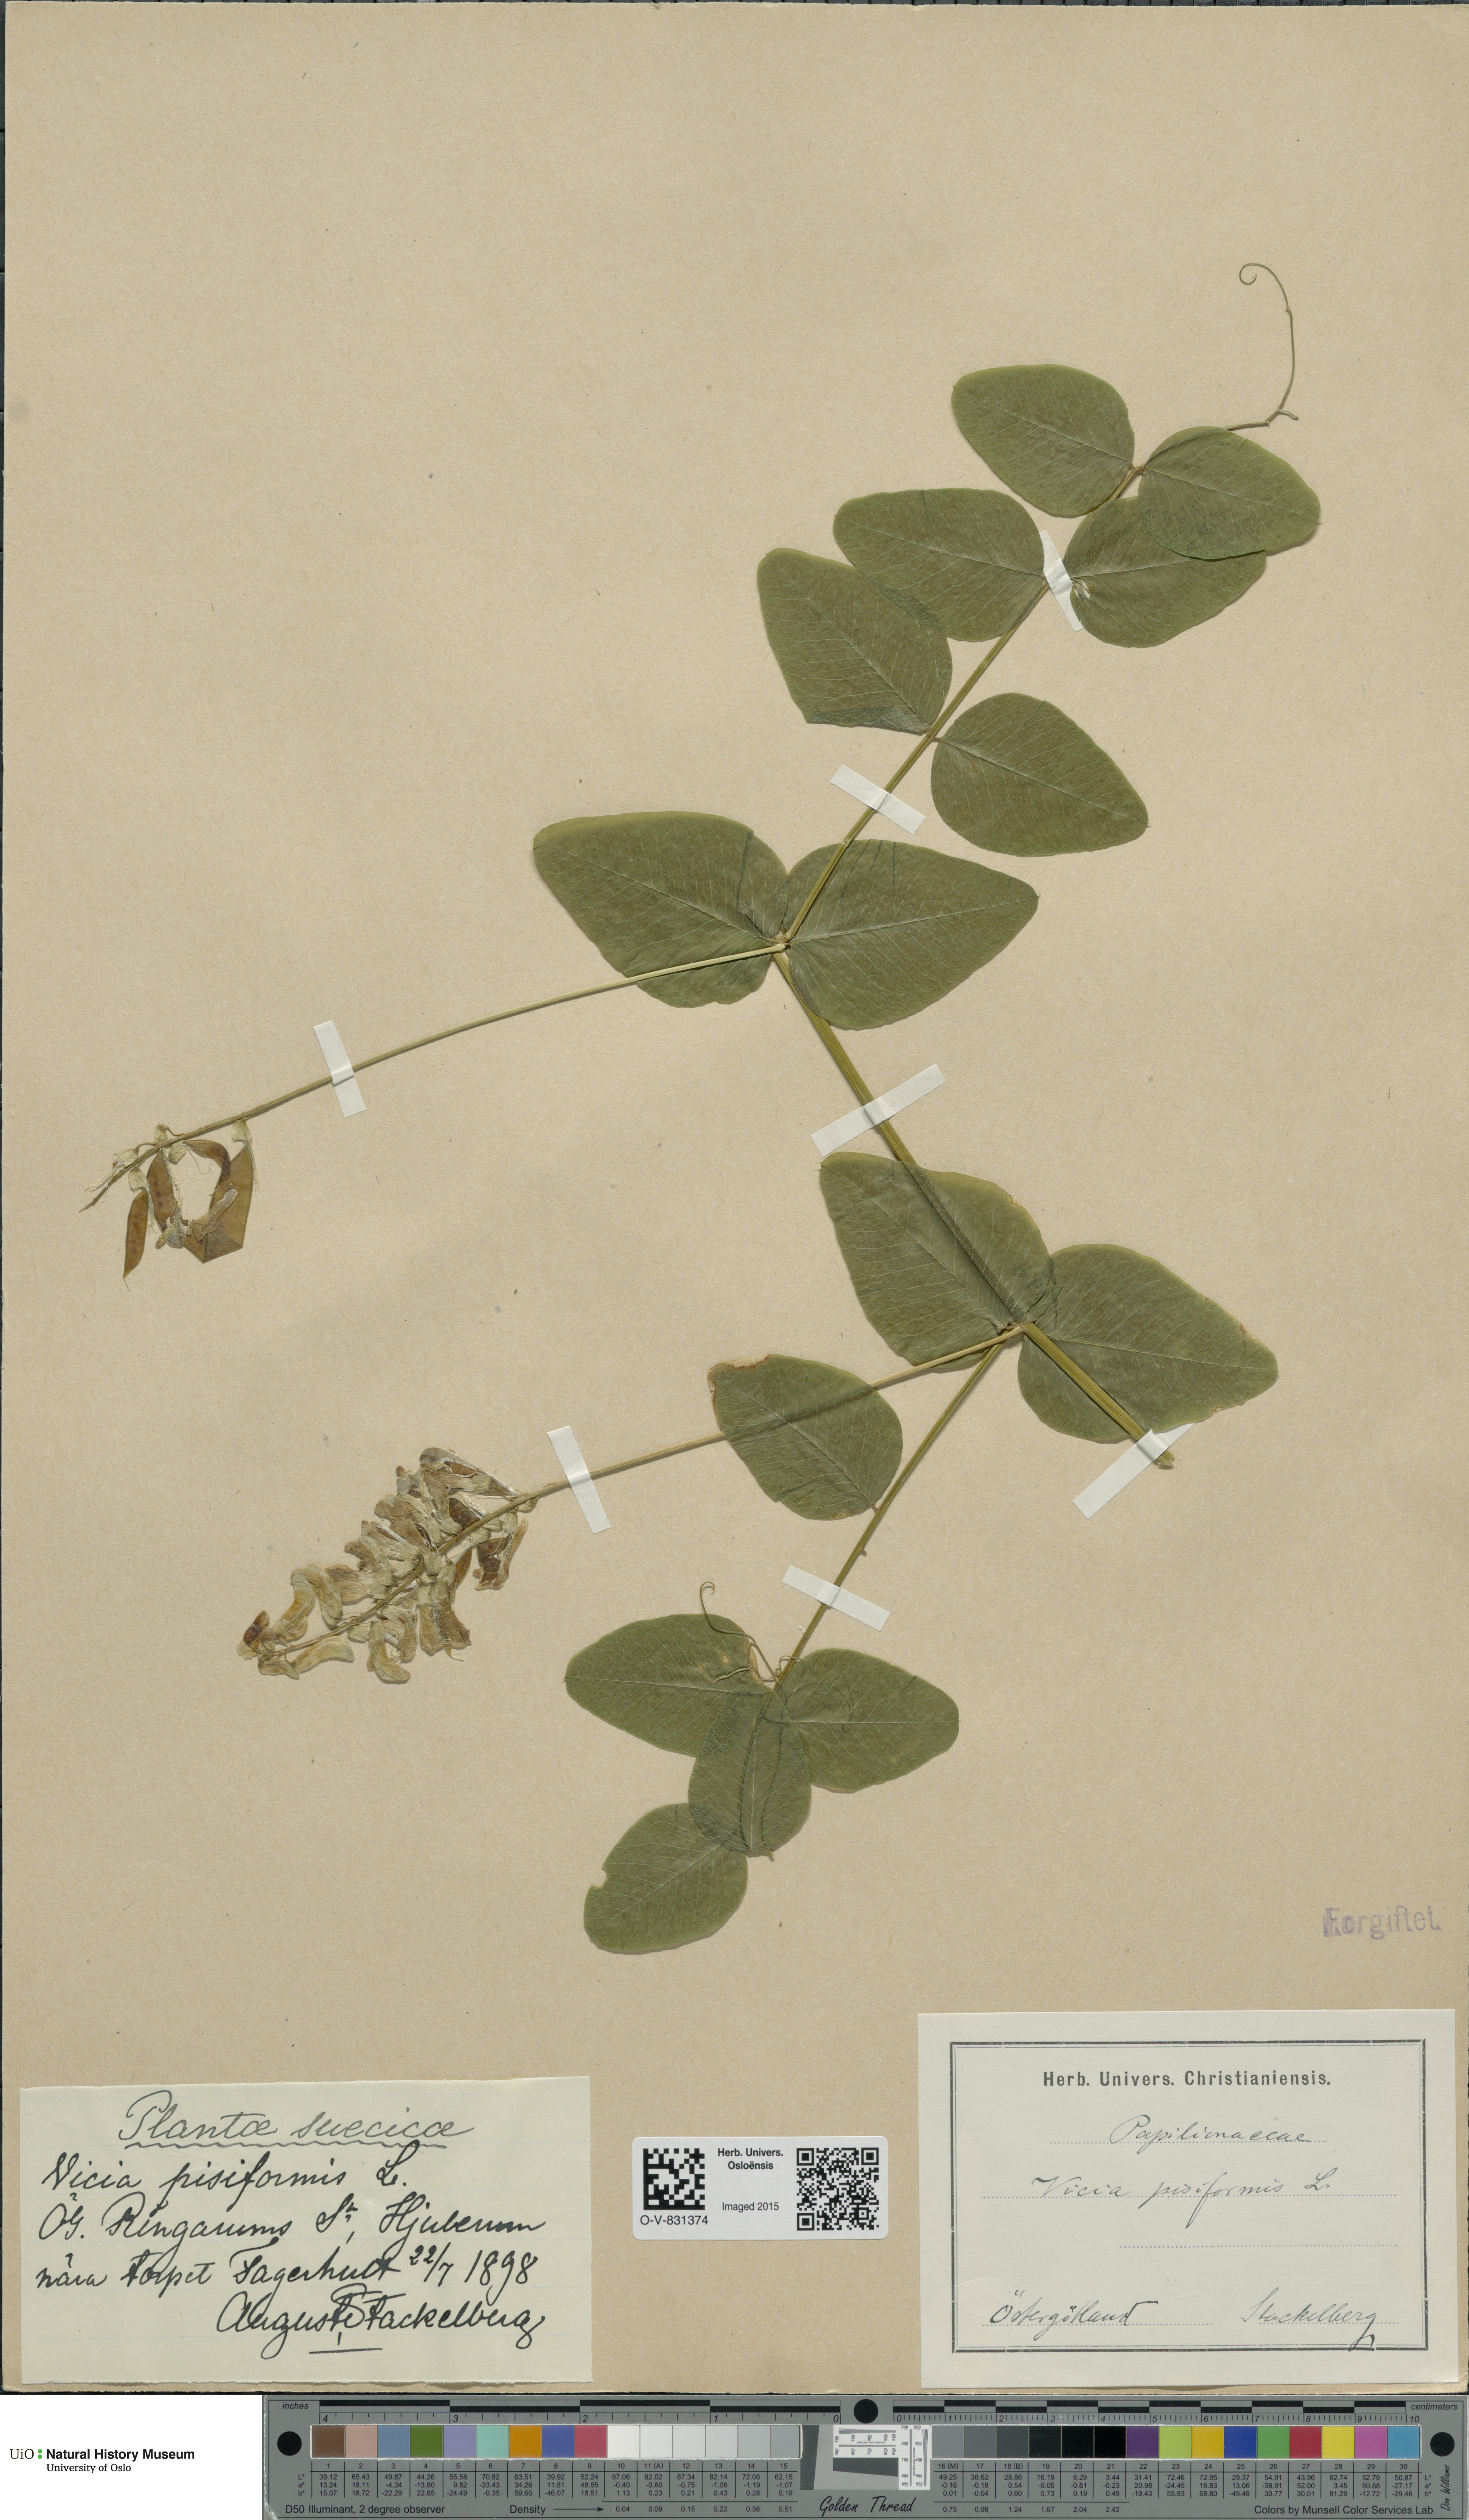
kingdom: Plantae
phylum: Tracheophyta
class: Magnoliopsida
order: Fabales
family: Fabaceae
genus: Vicia
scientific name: Vicia pisiformis
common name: Pale-flower vetch
